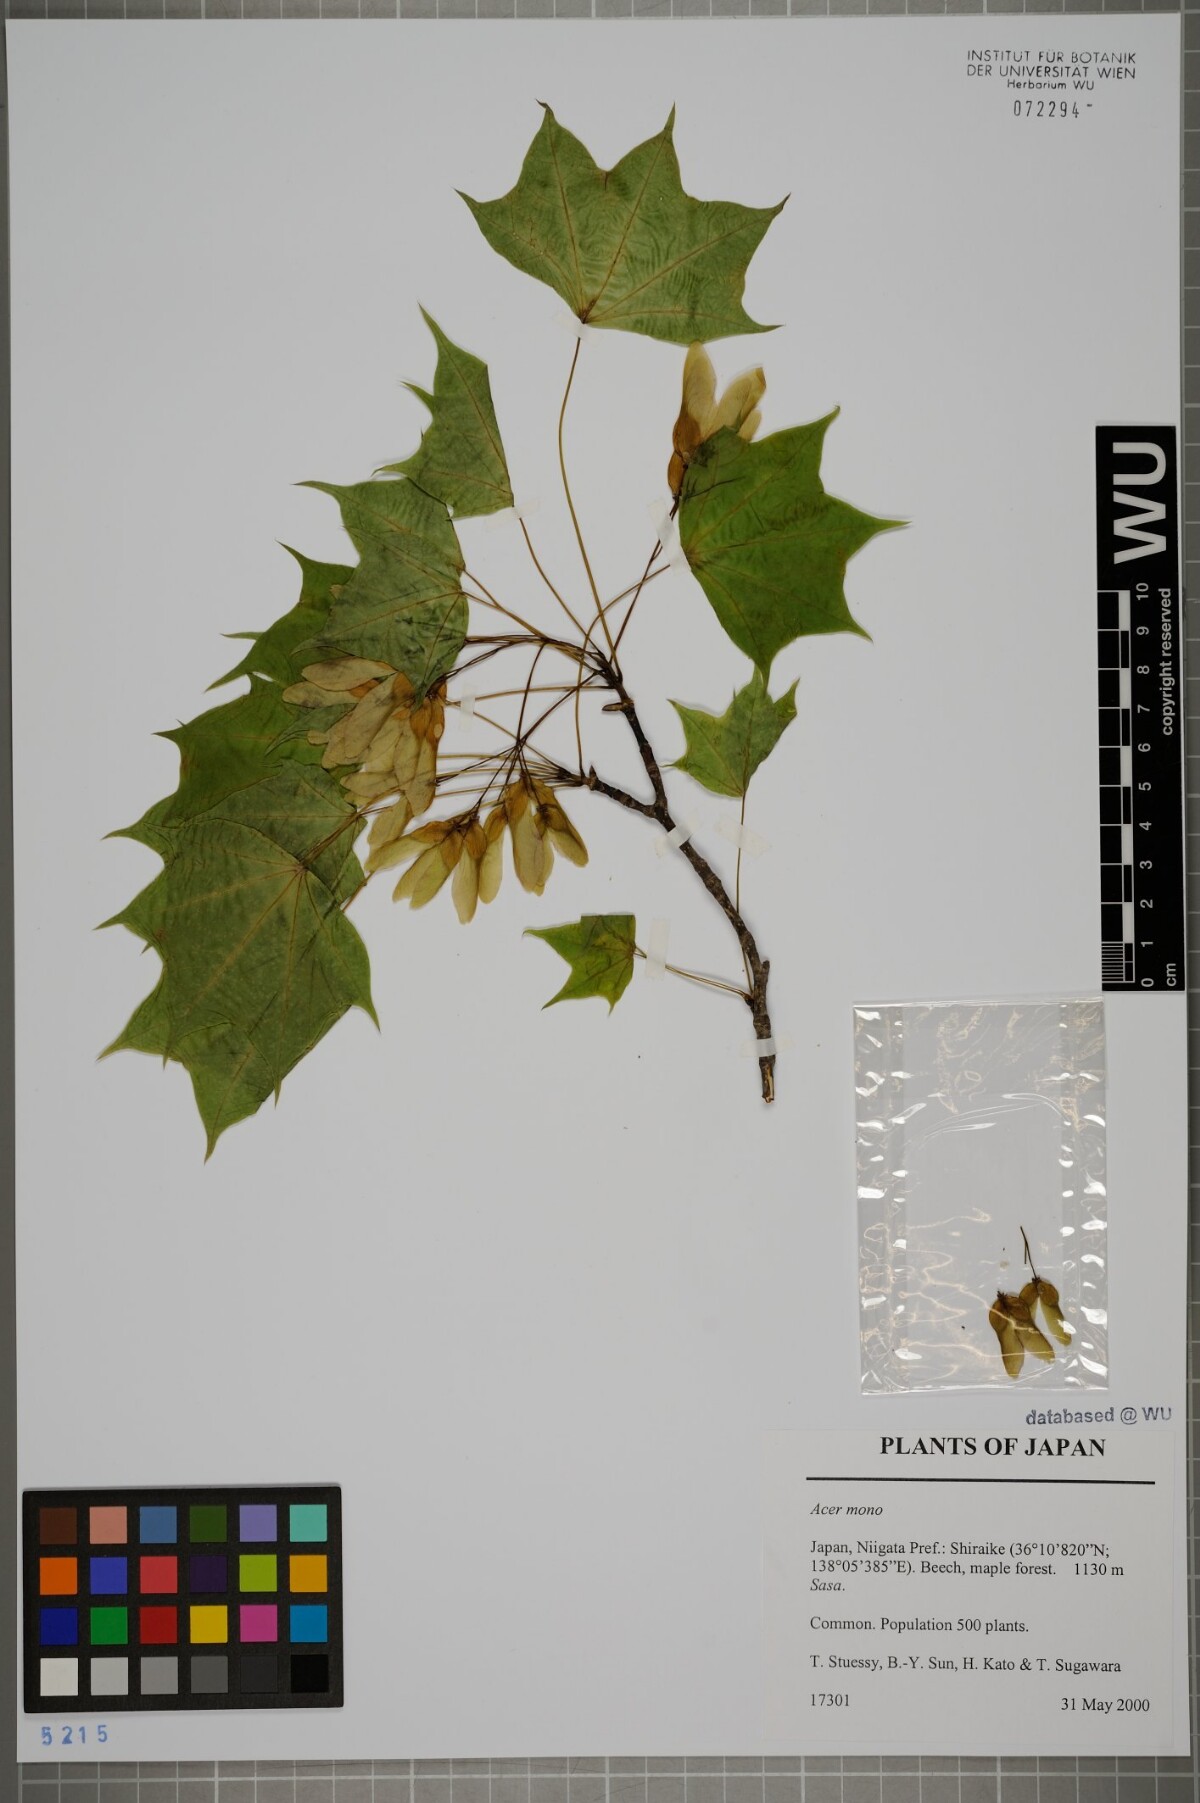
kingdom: Plantae
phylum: Tracheophyta
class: Magnoliopsida
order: Sapindales
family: Sapindaceae
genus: Acer
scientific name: Acer pictum
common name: The painted maple
